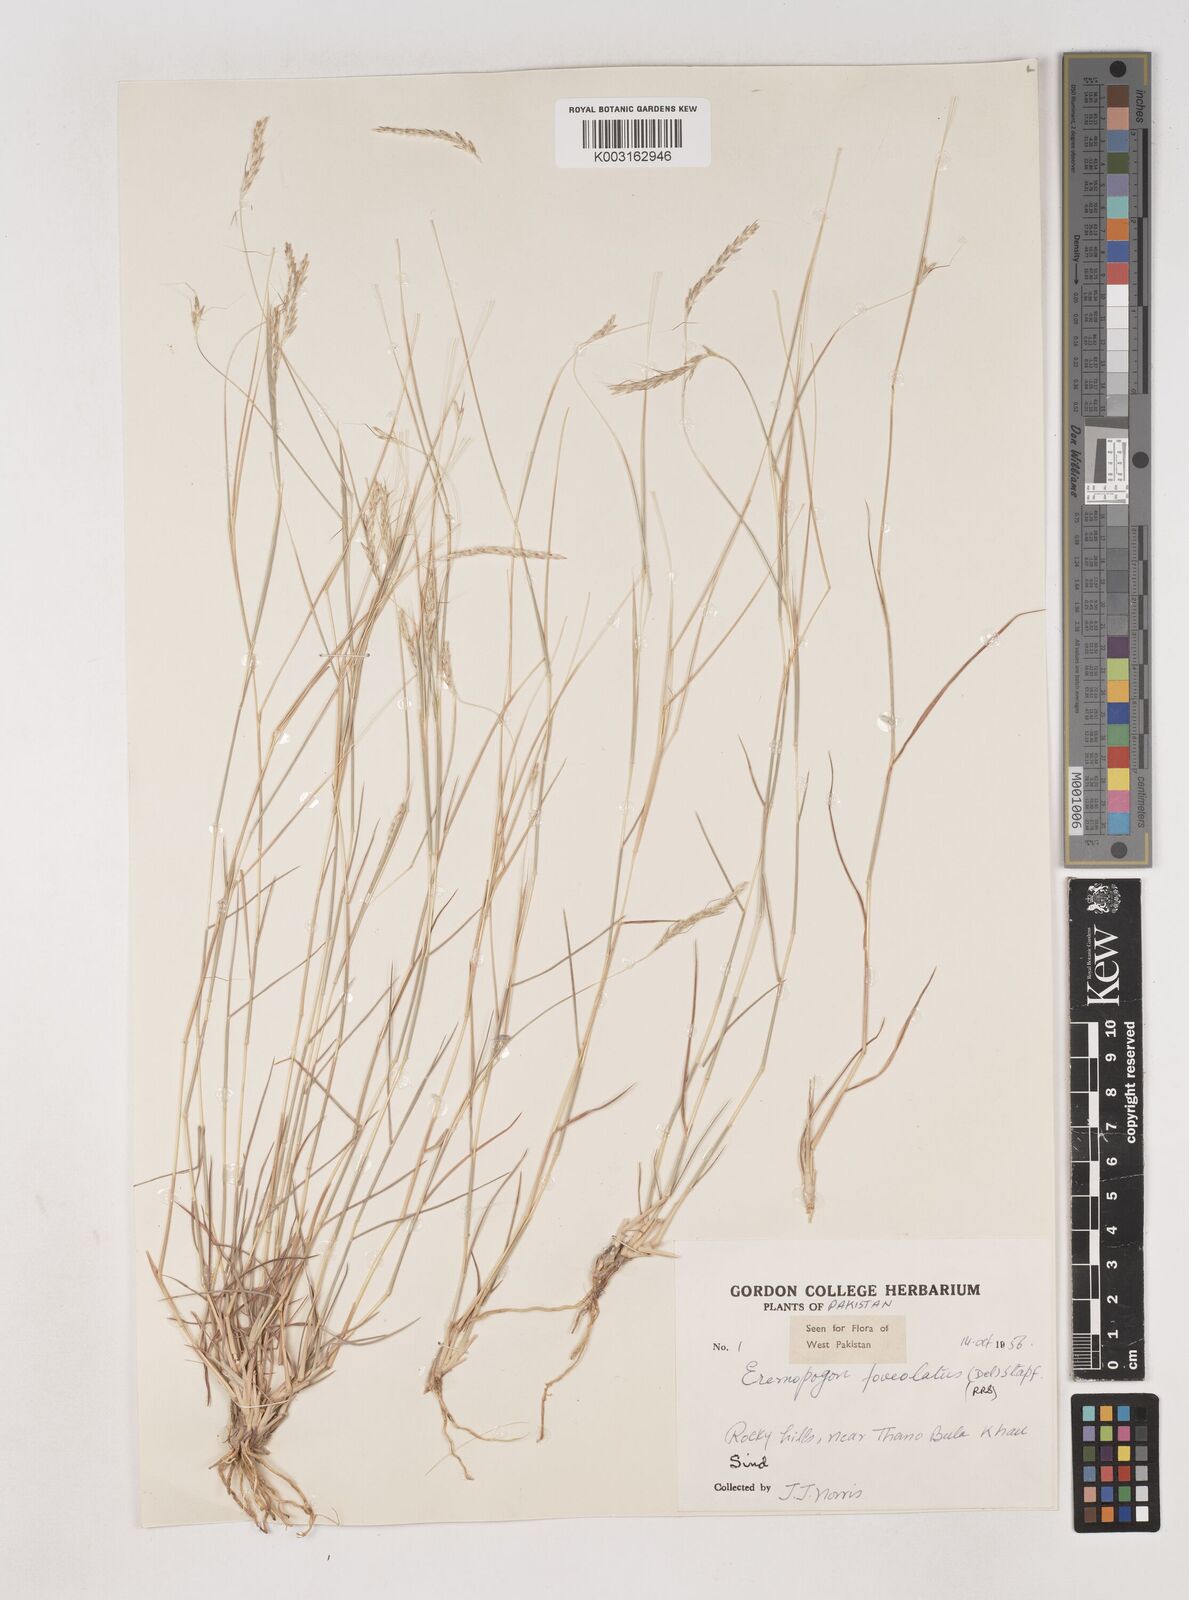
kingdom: Plantae
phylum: Tracheophyta
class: Liliopsida
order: Poales
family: Poaceae
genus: Dichanthium
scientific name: Dichanthium
